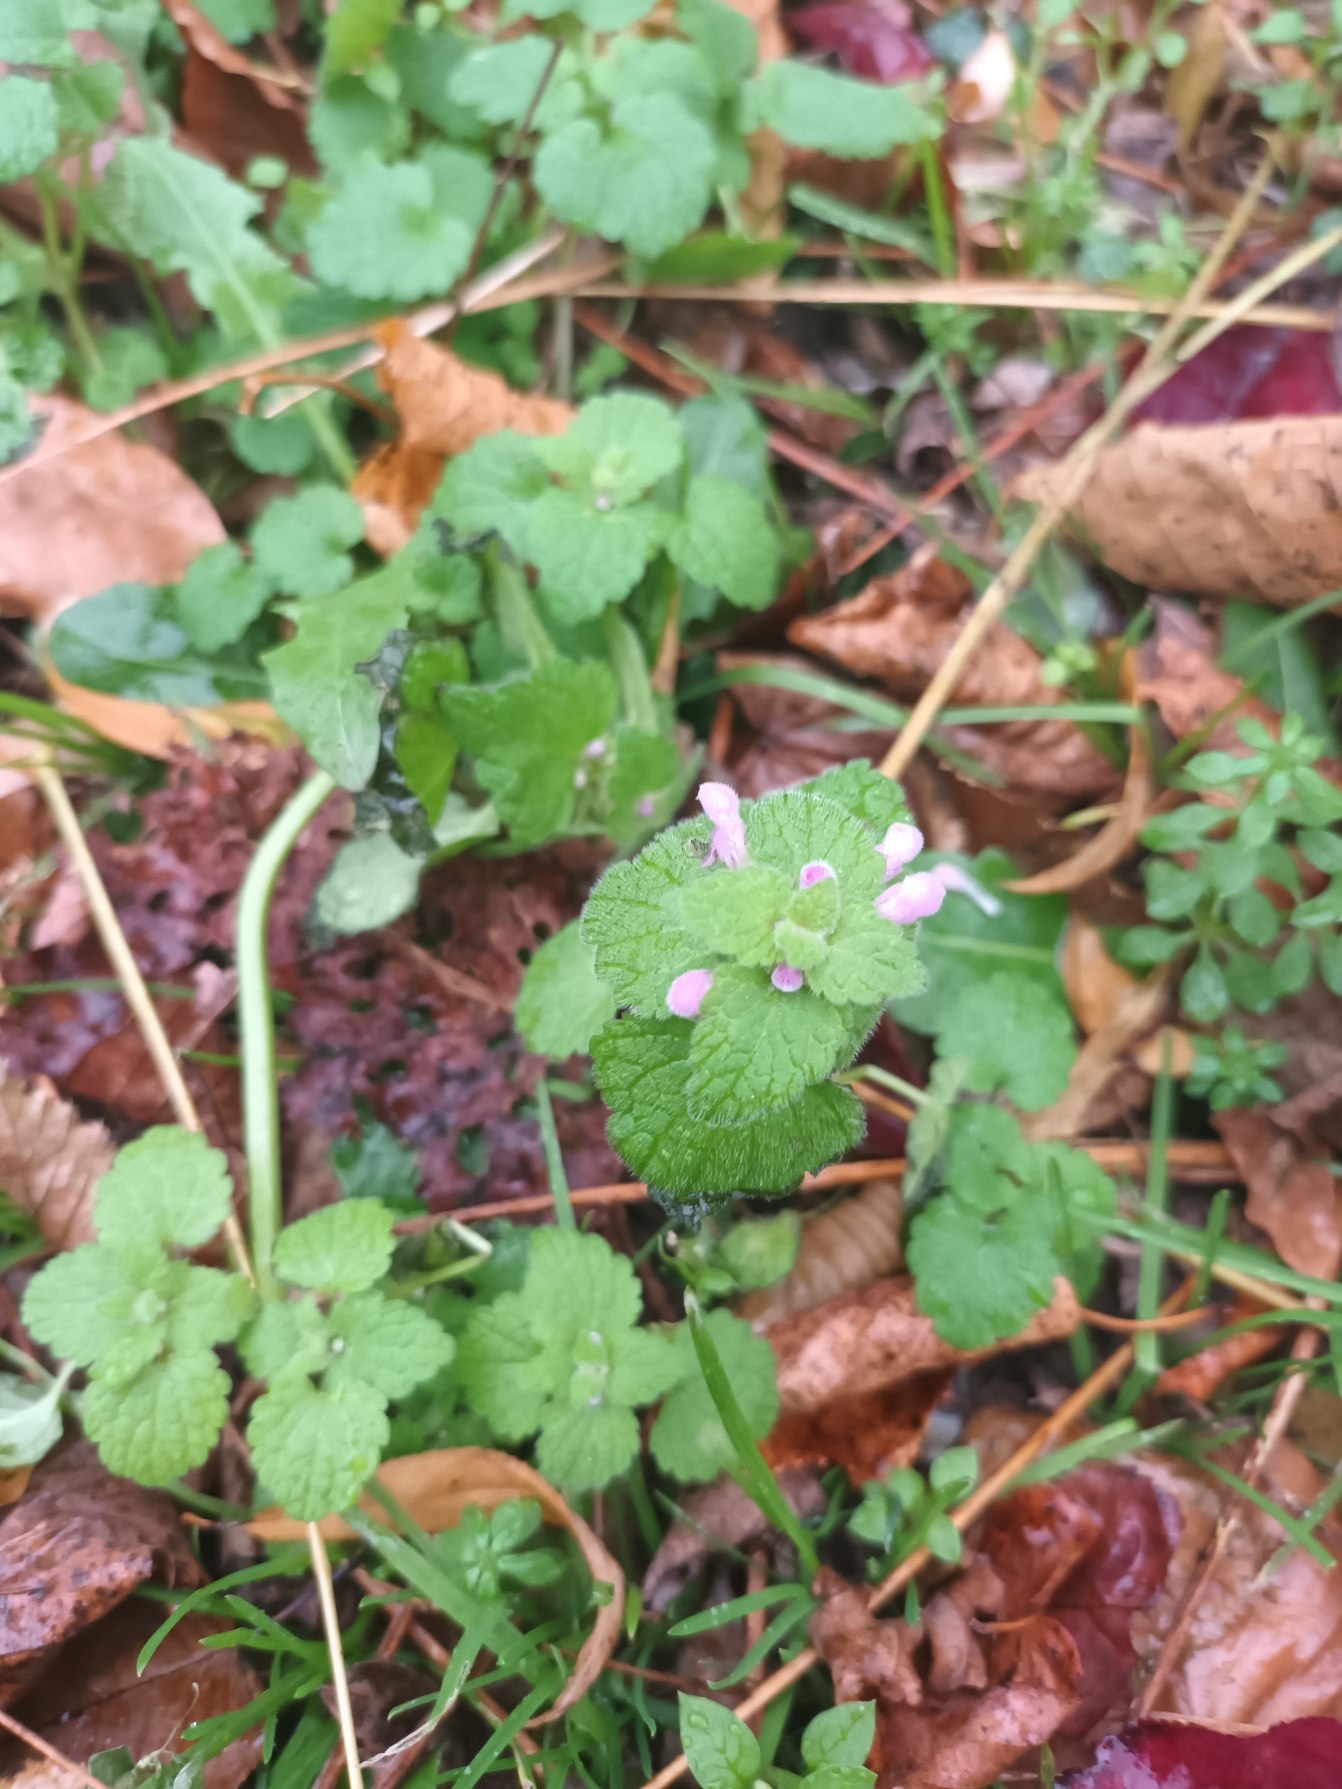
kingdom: Plantae
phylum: Tracheophyta
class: Magnoliopsida
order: Lamiales
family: Lamiaceae
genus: Lamium
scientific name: Lamium purpureum
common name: Rød tvetand
